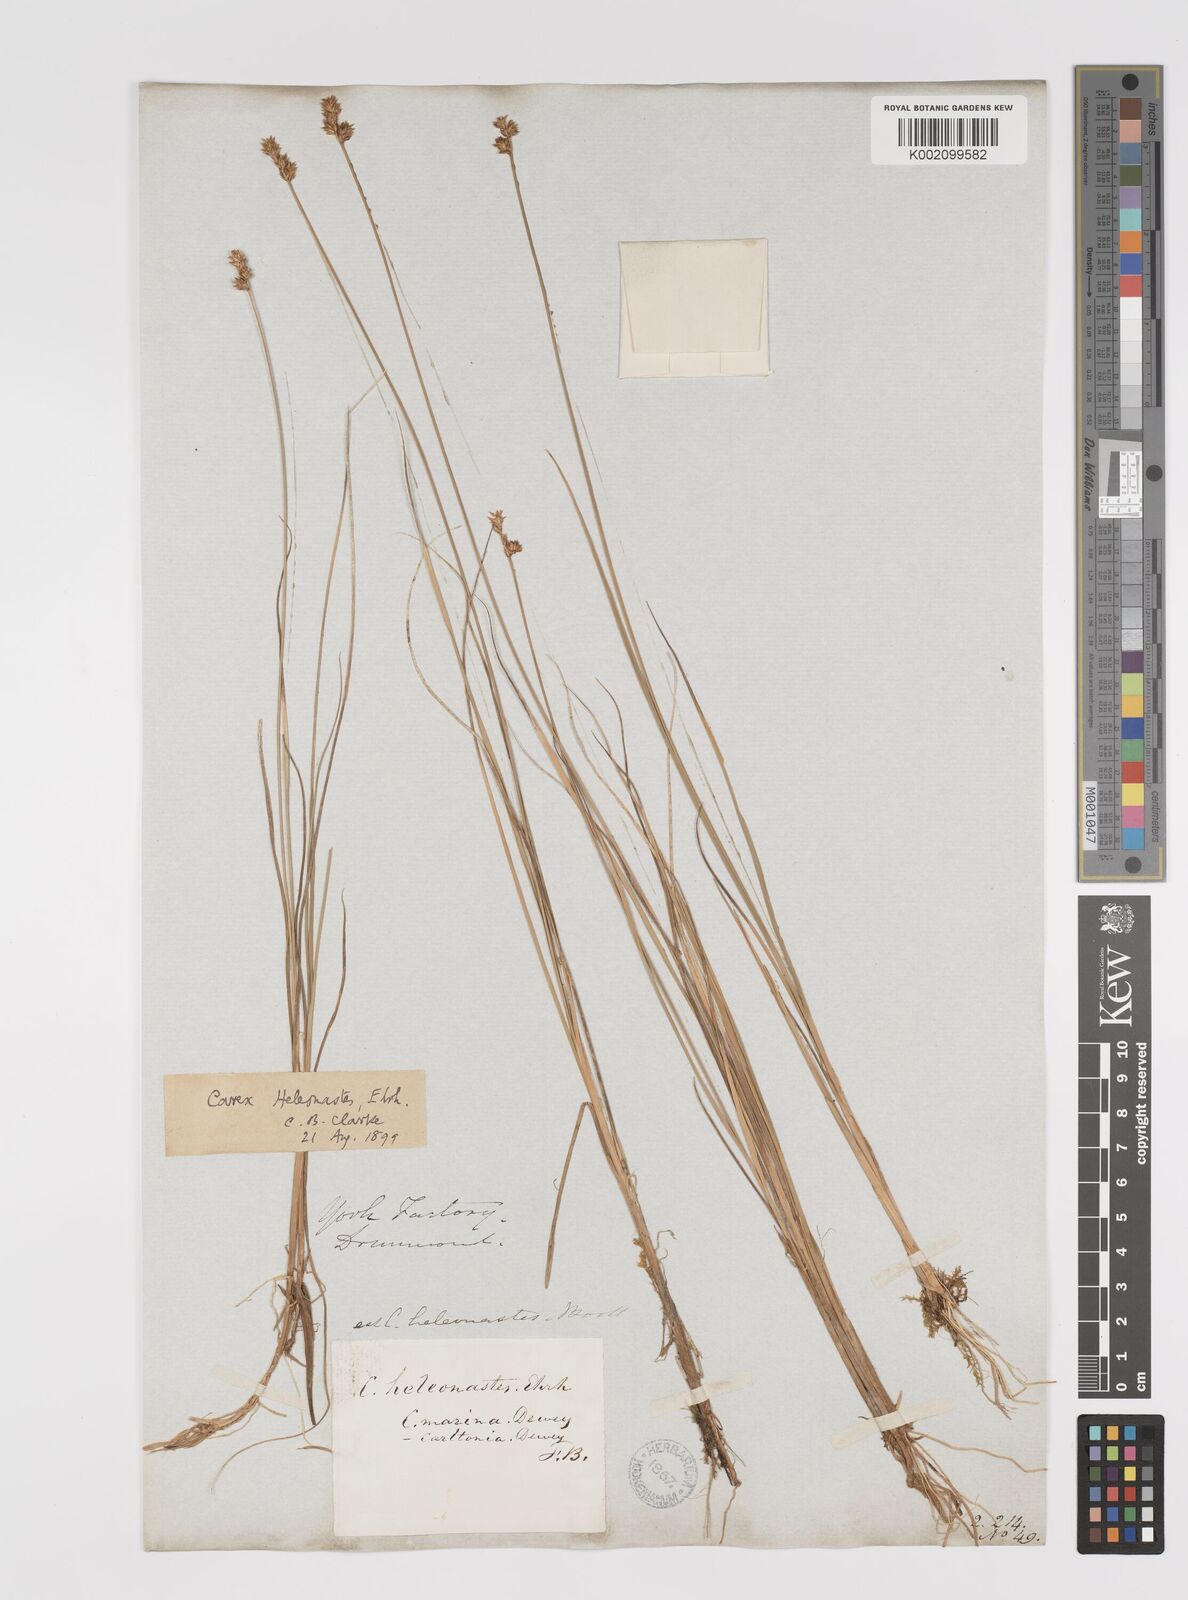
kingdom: Plantae
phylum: Tracheophyta
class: Liliopsida
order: Poales
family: Cyperaceae
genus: Carex
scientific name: Carex heleonastes
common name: Hudson bay sedge
